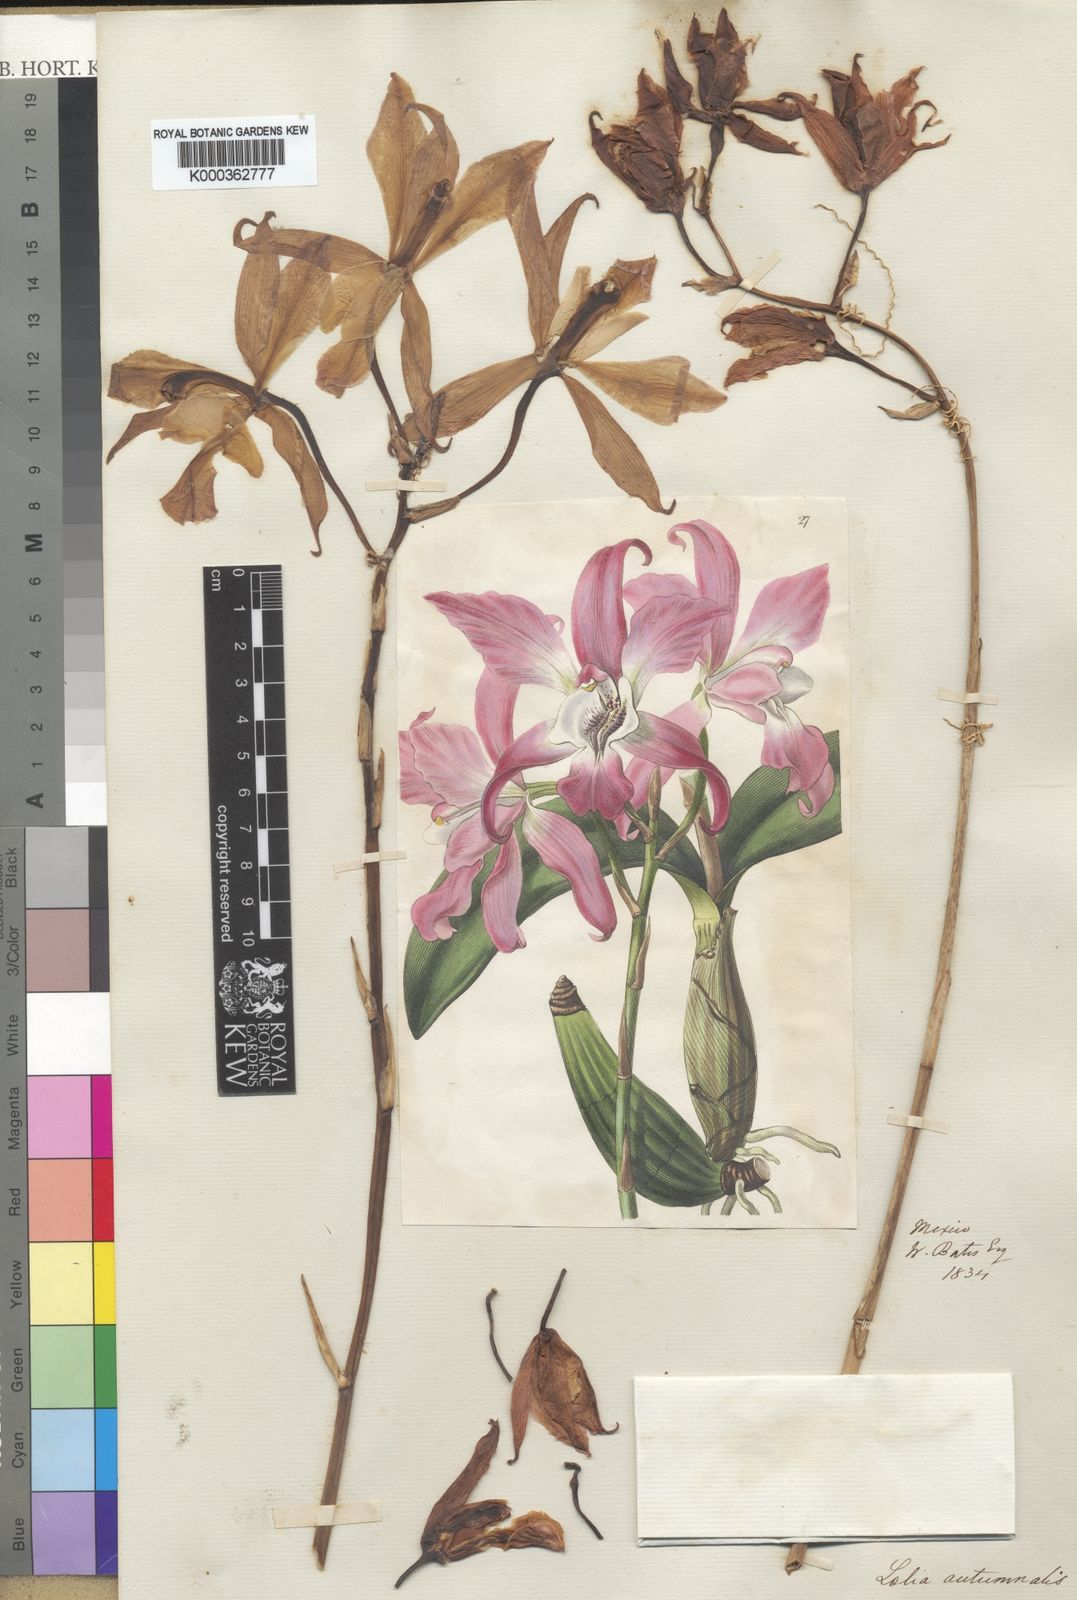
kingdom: Plantae
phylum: Tracheophyta
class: Liliopsida
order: Asparagales
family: Orchidaceae
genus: Laelia
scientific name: Laelia autumnalis
